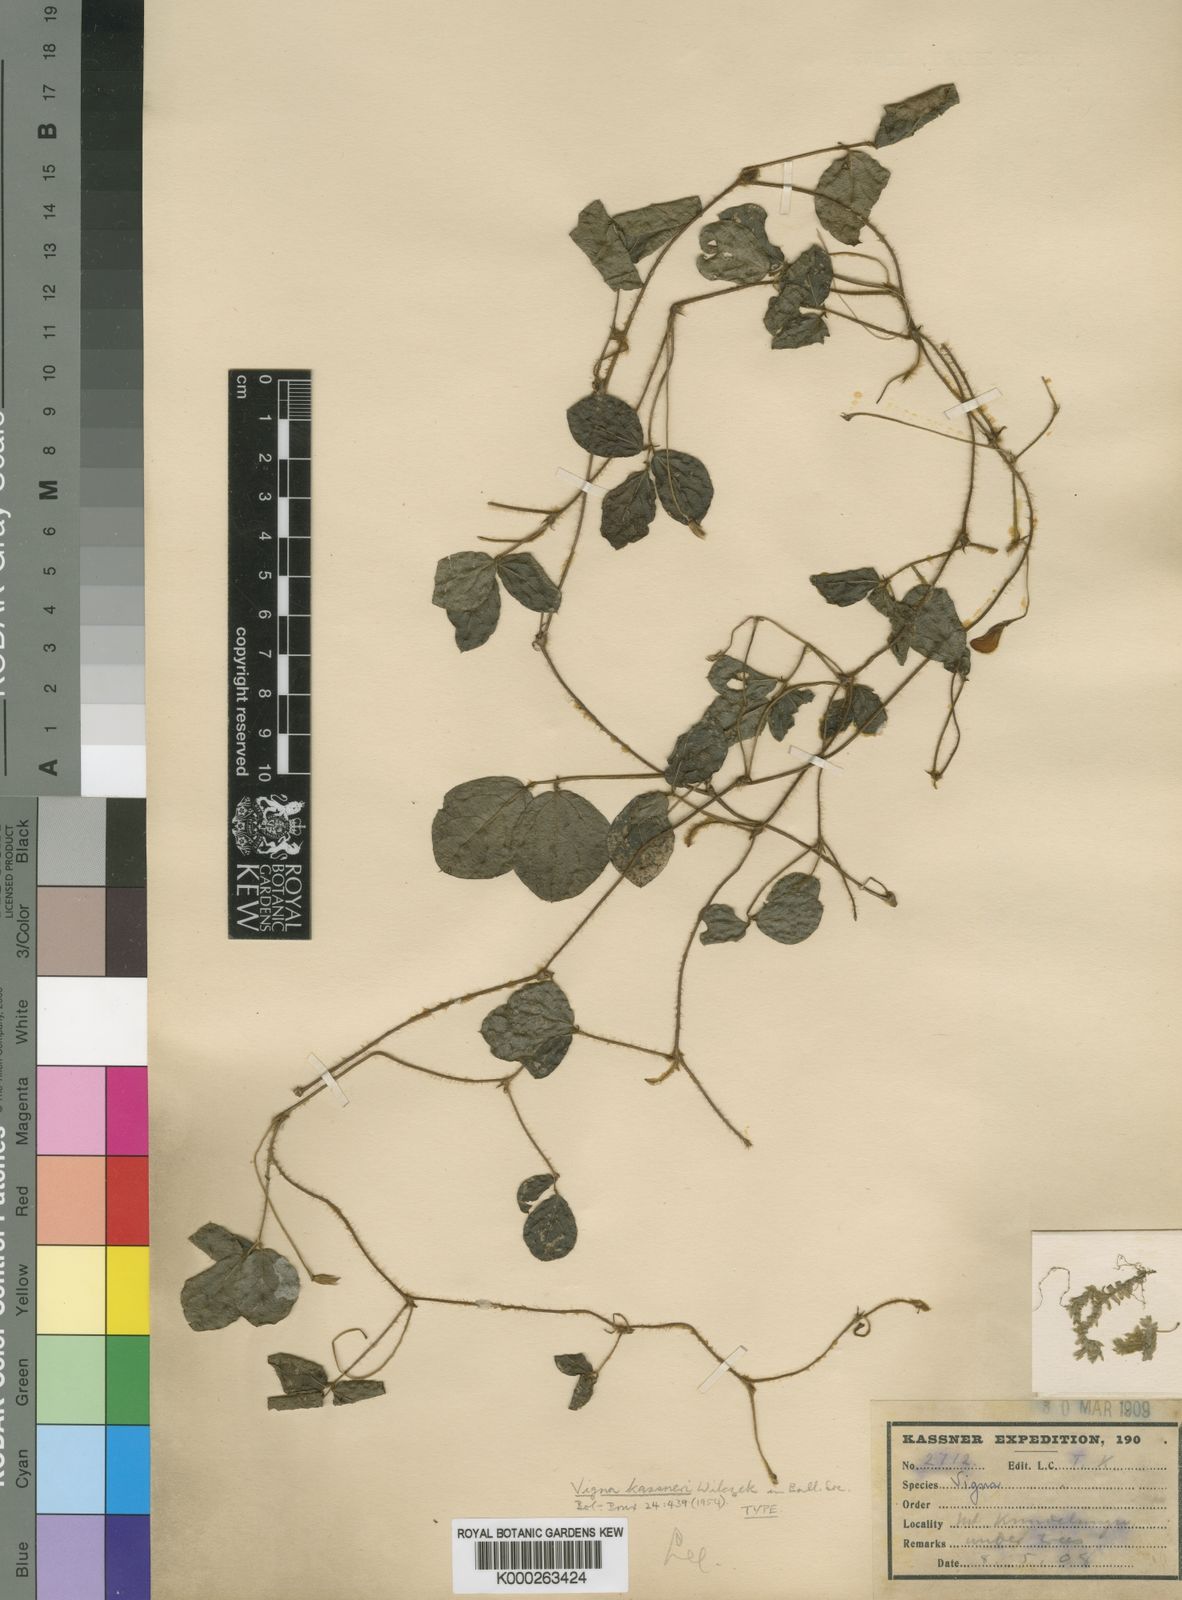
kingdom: Plantae
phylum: Tracheophyta
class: Magnoliopsida
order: Fabales
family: Fabaceae
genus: Vigna
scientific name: Vigna
